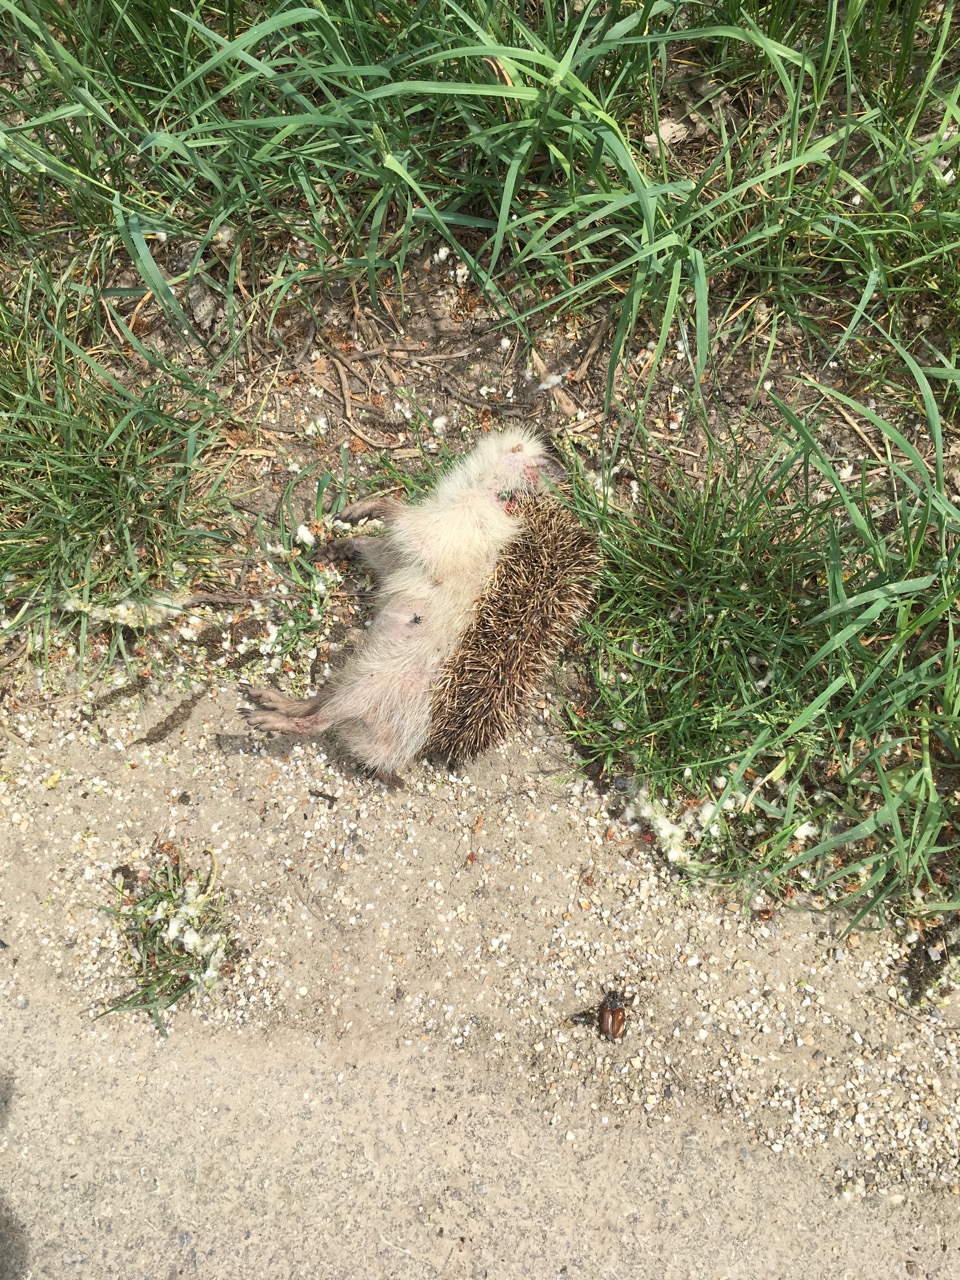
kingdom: Animalia
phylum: Chordata
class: Mammalia
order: Erinaceomorpha
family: Erinaceidae
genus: Erinaceus
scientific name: Erinaceus
